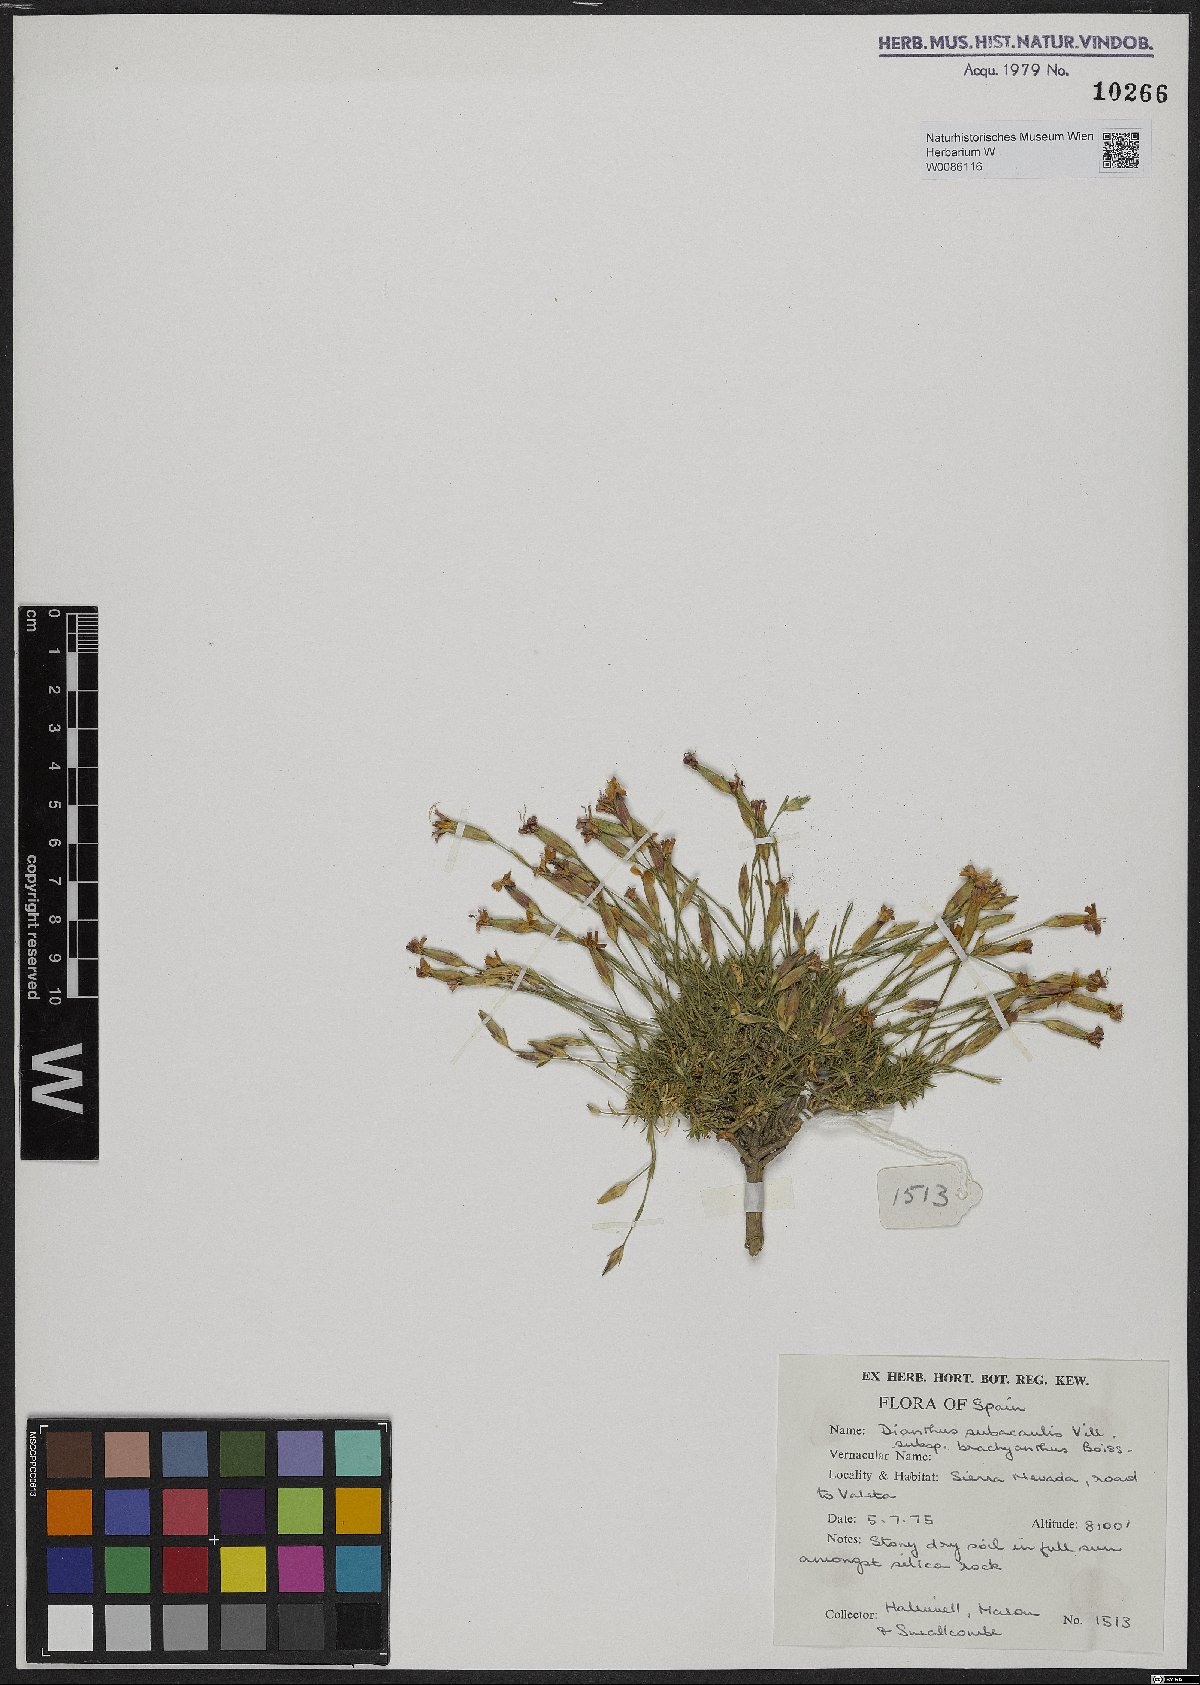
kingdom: Plantae
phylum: Tracheophyta
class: Magnoliopsida
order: Caryophyllales
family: Caryophyllaceae
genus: Dianthus
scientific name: Dianthus pungens
